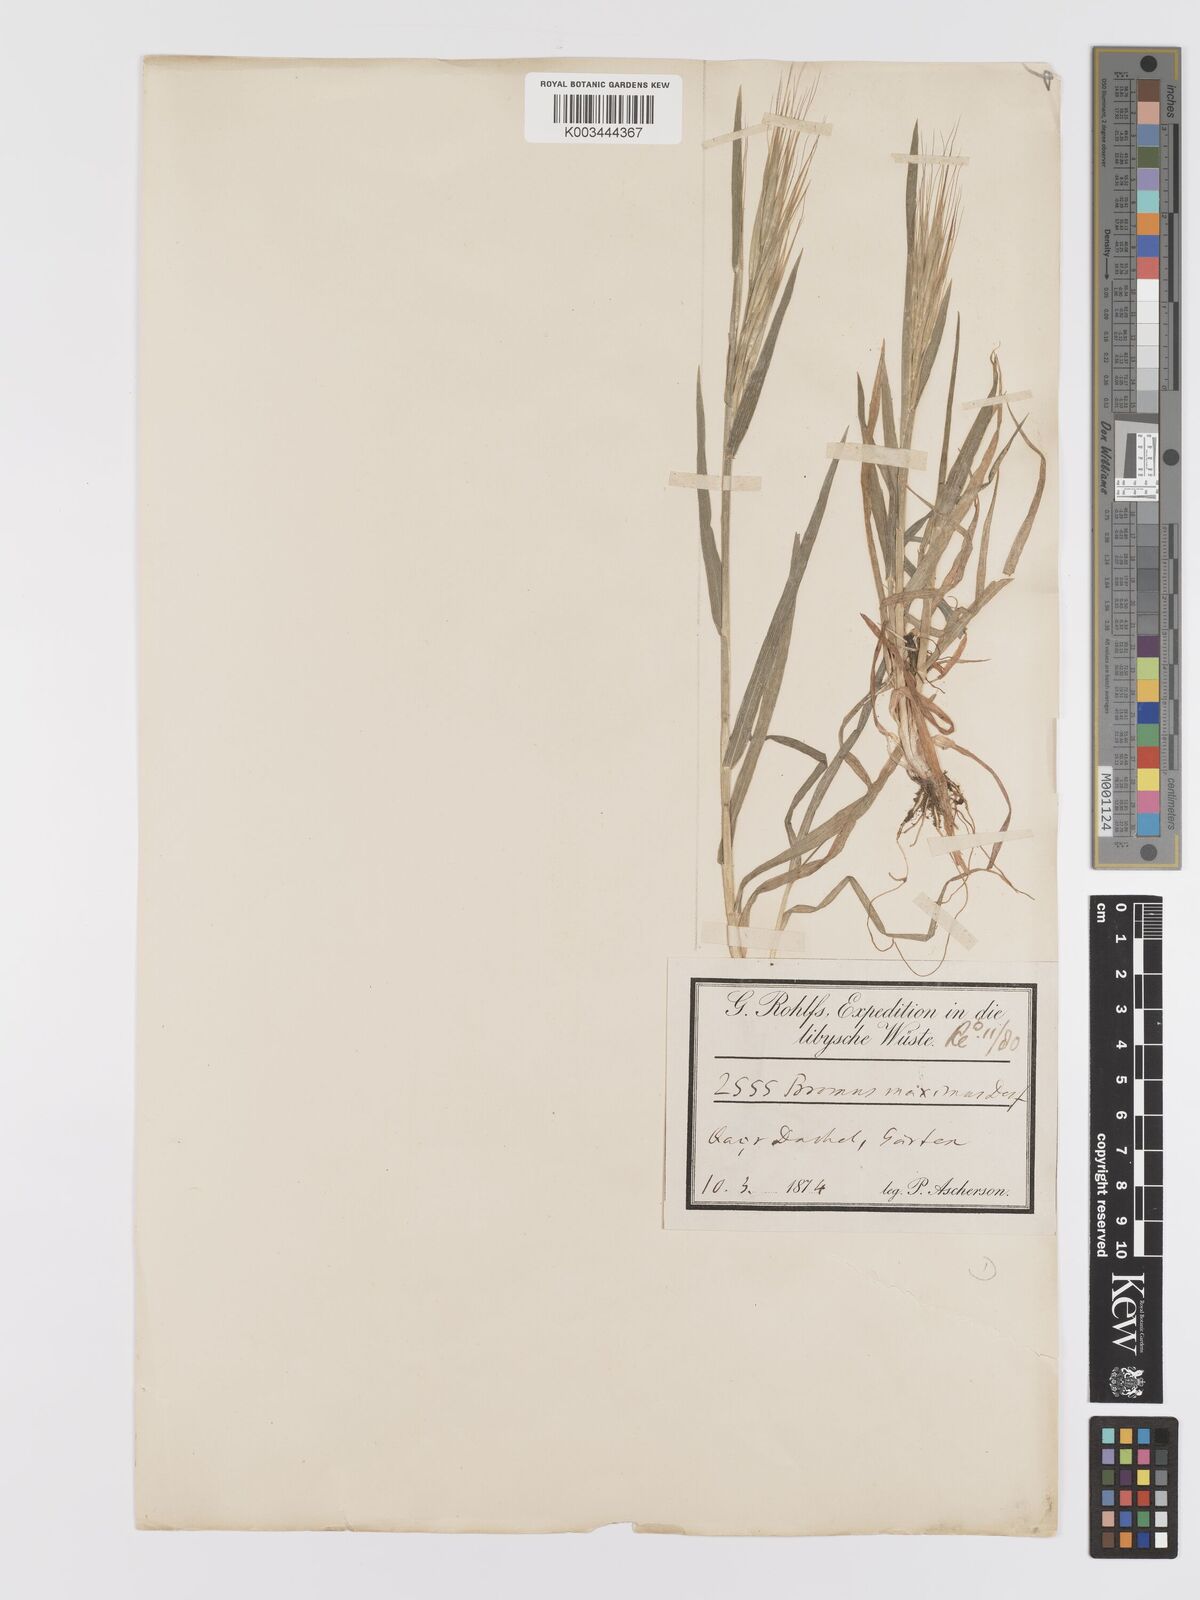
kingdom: Plantae
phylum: Tracheophyta
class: Liliopsida
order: Poales
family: Poaceae
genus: Bromus
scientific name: Bromus diandrus
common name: Ripgut brome
